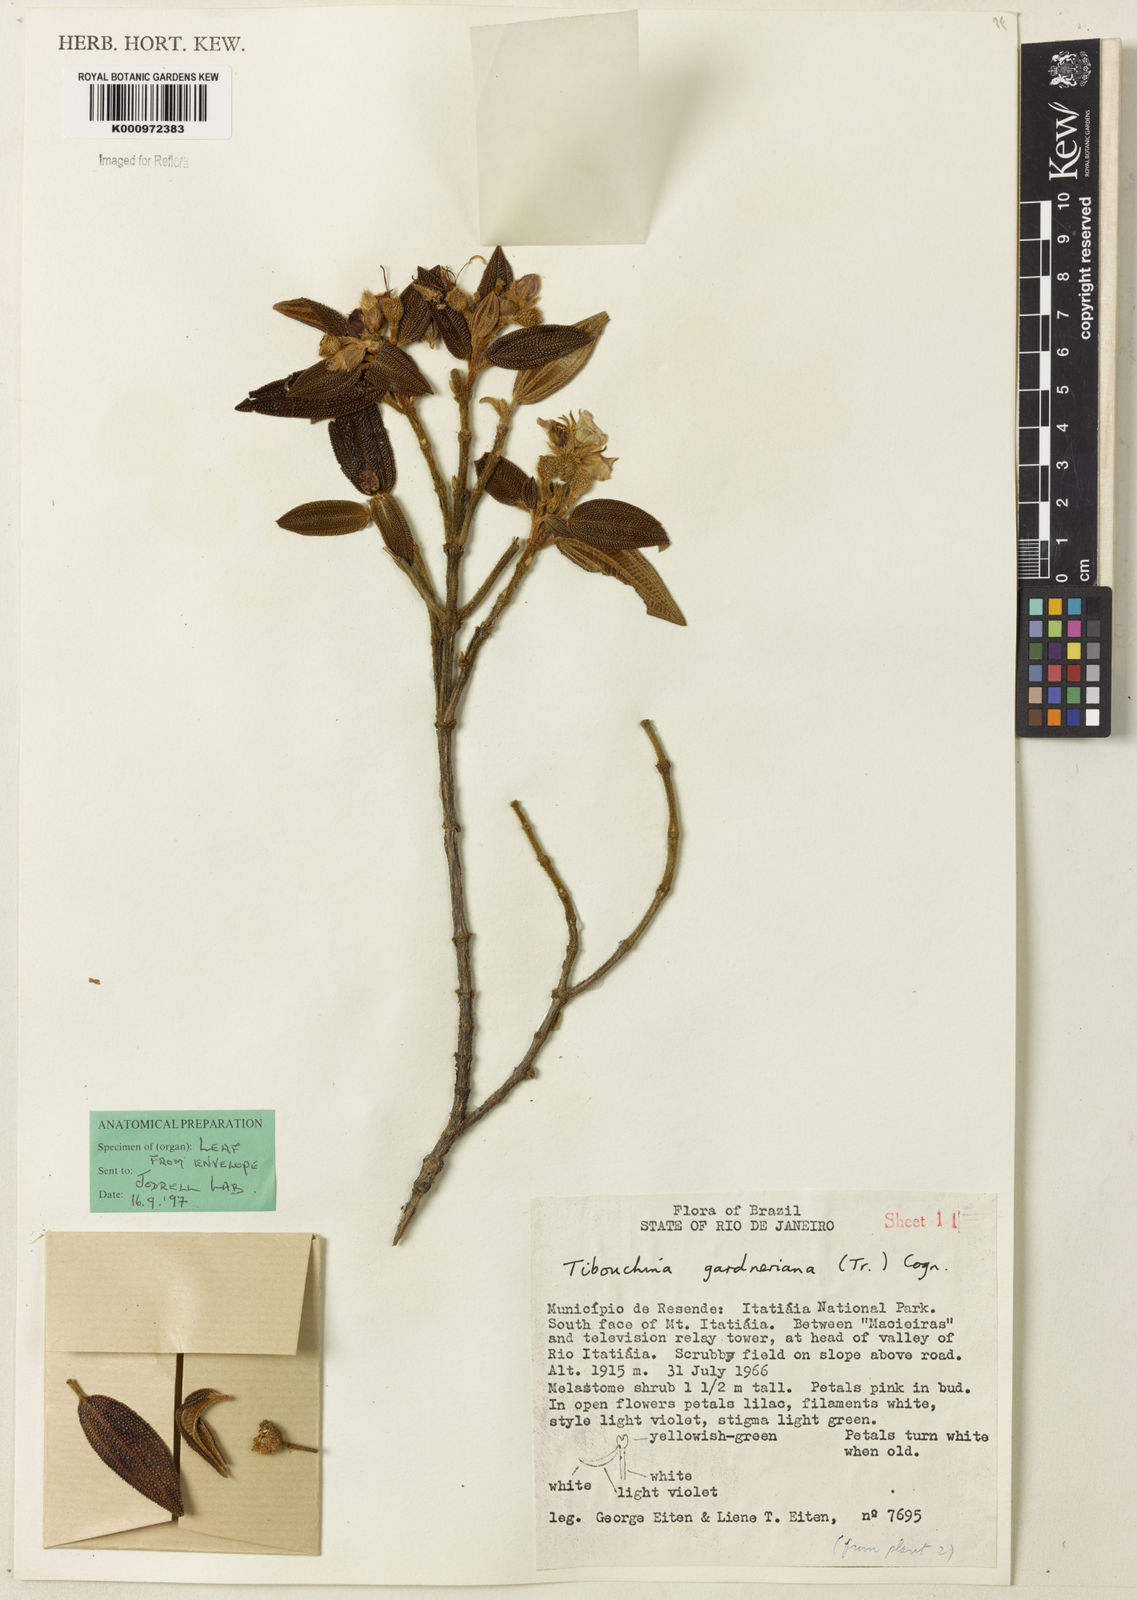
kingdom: Plantae
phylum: Tracheophyta
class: Magnoliopsida
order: Myrtales
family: Melastomataceae
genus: Pleroma
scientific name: Pleroma echinatum
